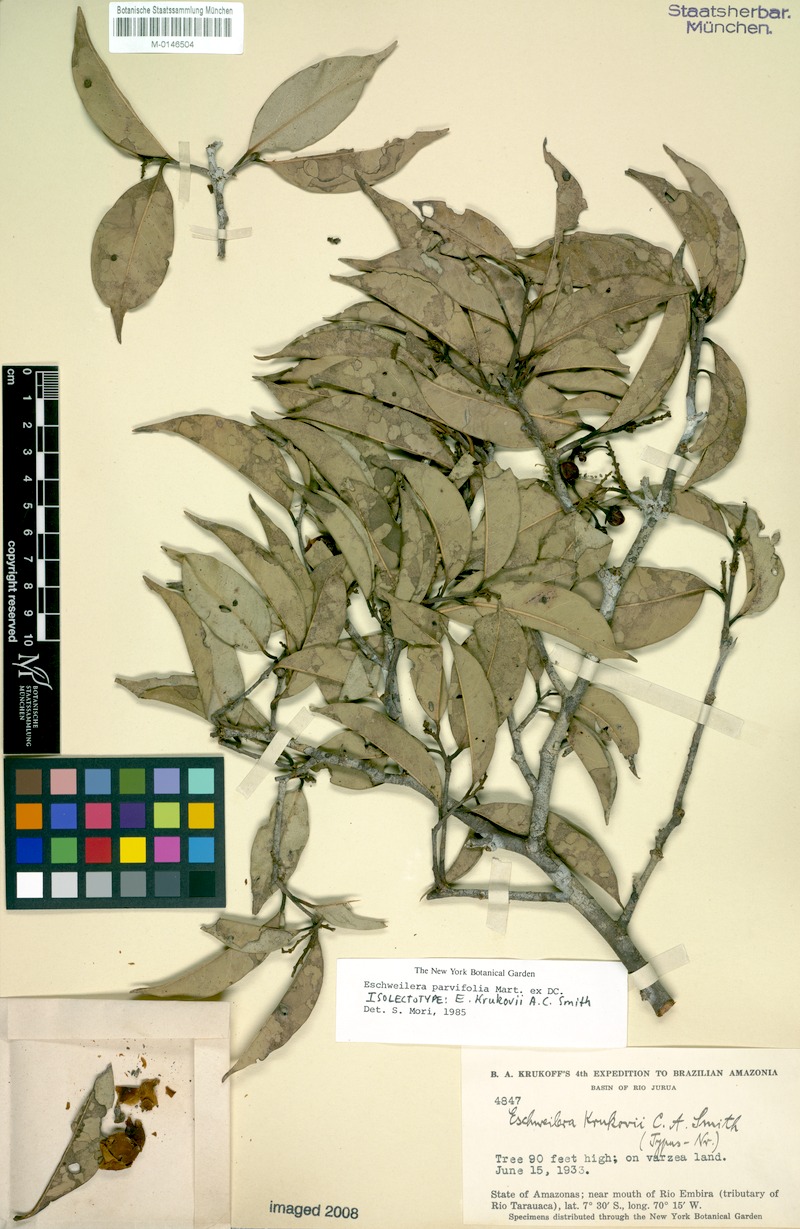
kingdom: Plantae
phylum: Tracheophyta
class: Magnoliopsida
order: Ericales
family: Lecythidaceae
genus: Eschweilera
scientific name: Eschweilera parvifolia
